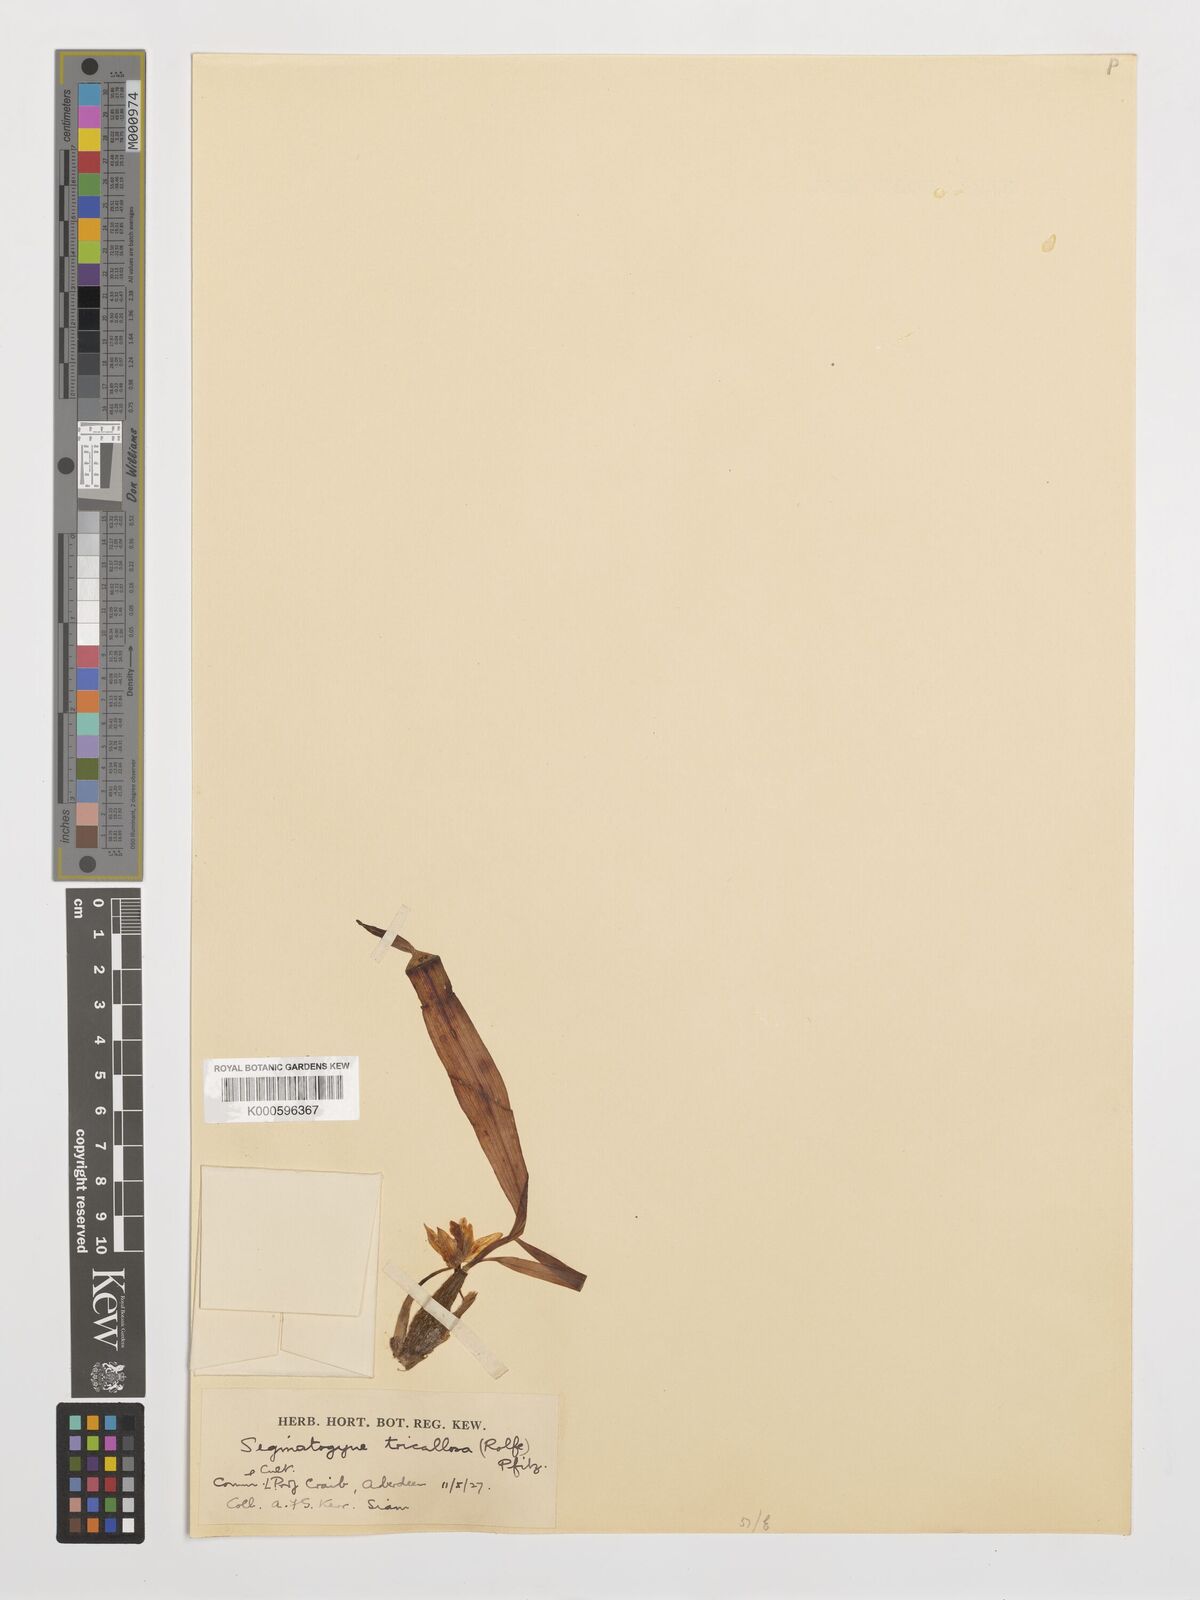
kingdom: Plantae
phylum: Tracheophyta
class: Liliopsida
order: Asparagales
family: Orchidaceae
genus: Coelogyne
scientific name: Coelogyne tricallosa
